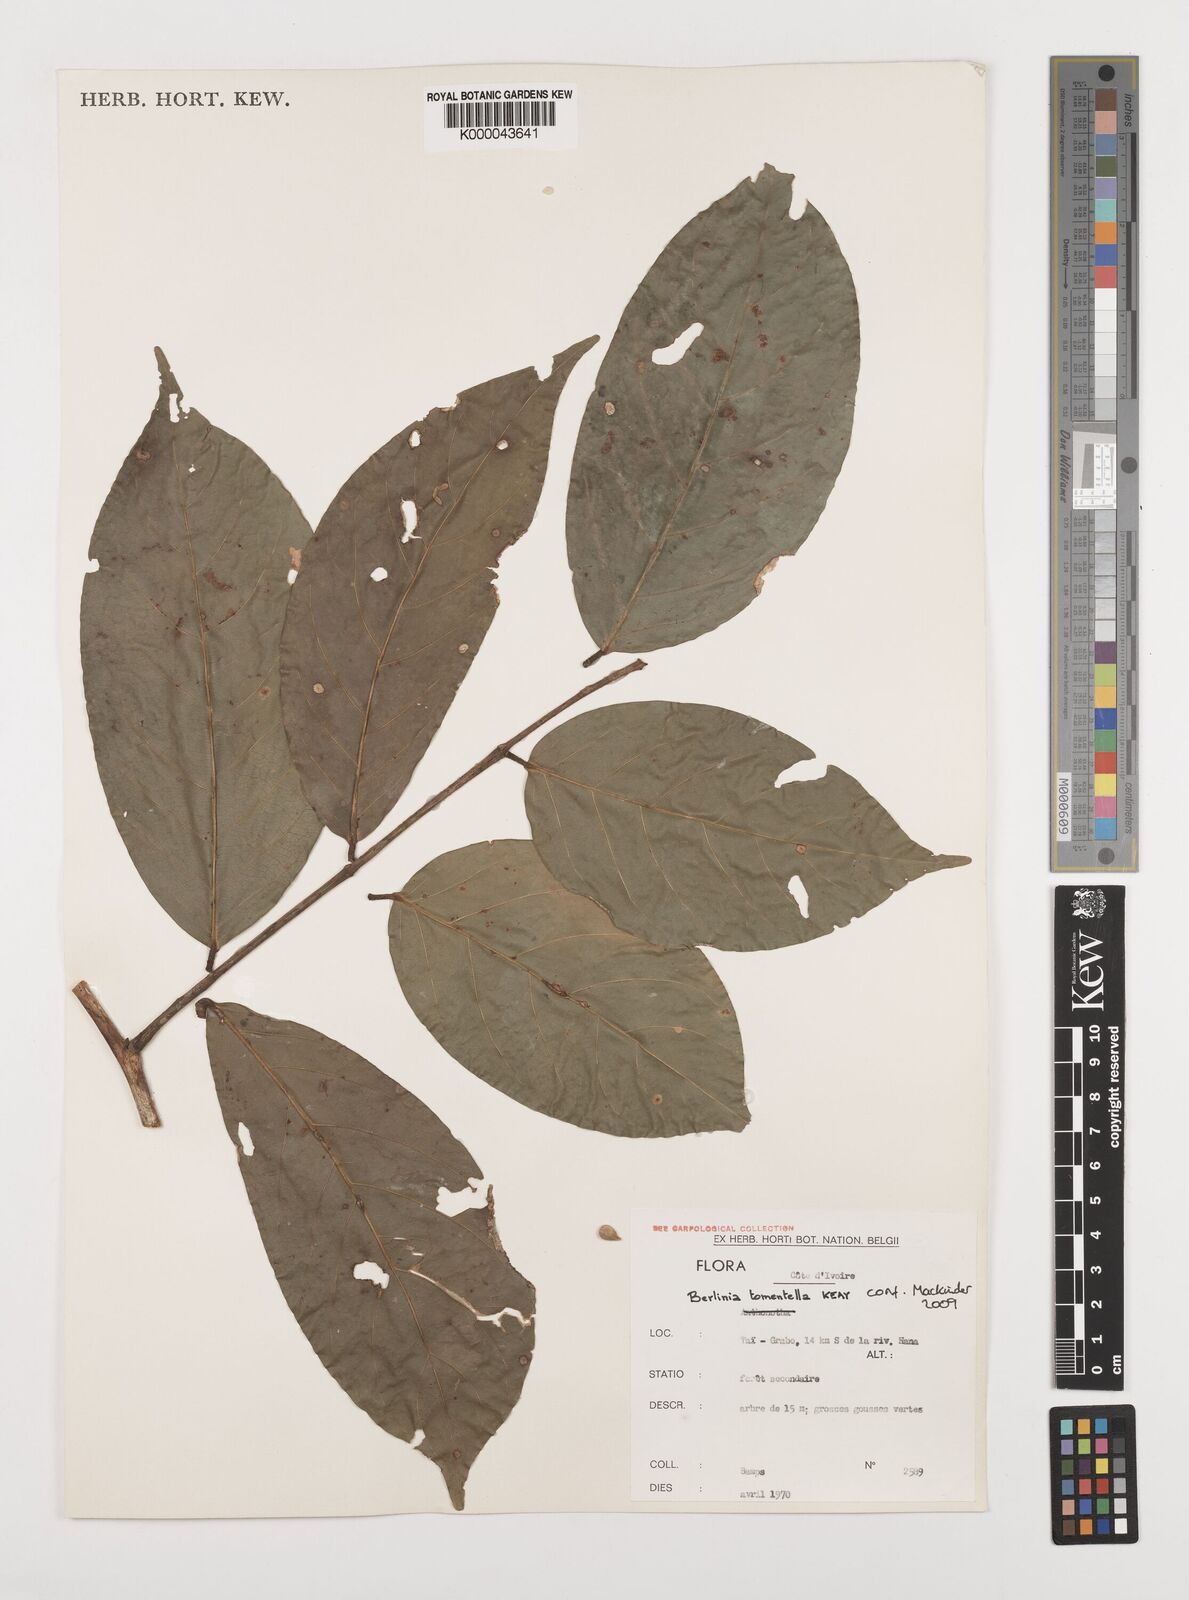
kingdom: Plantae
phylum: Tracheophyta
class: Magnoliopsida
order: Fabales
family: Fabaceae
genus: Berlinia
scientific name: Berlinia tomentella
